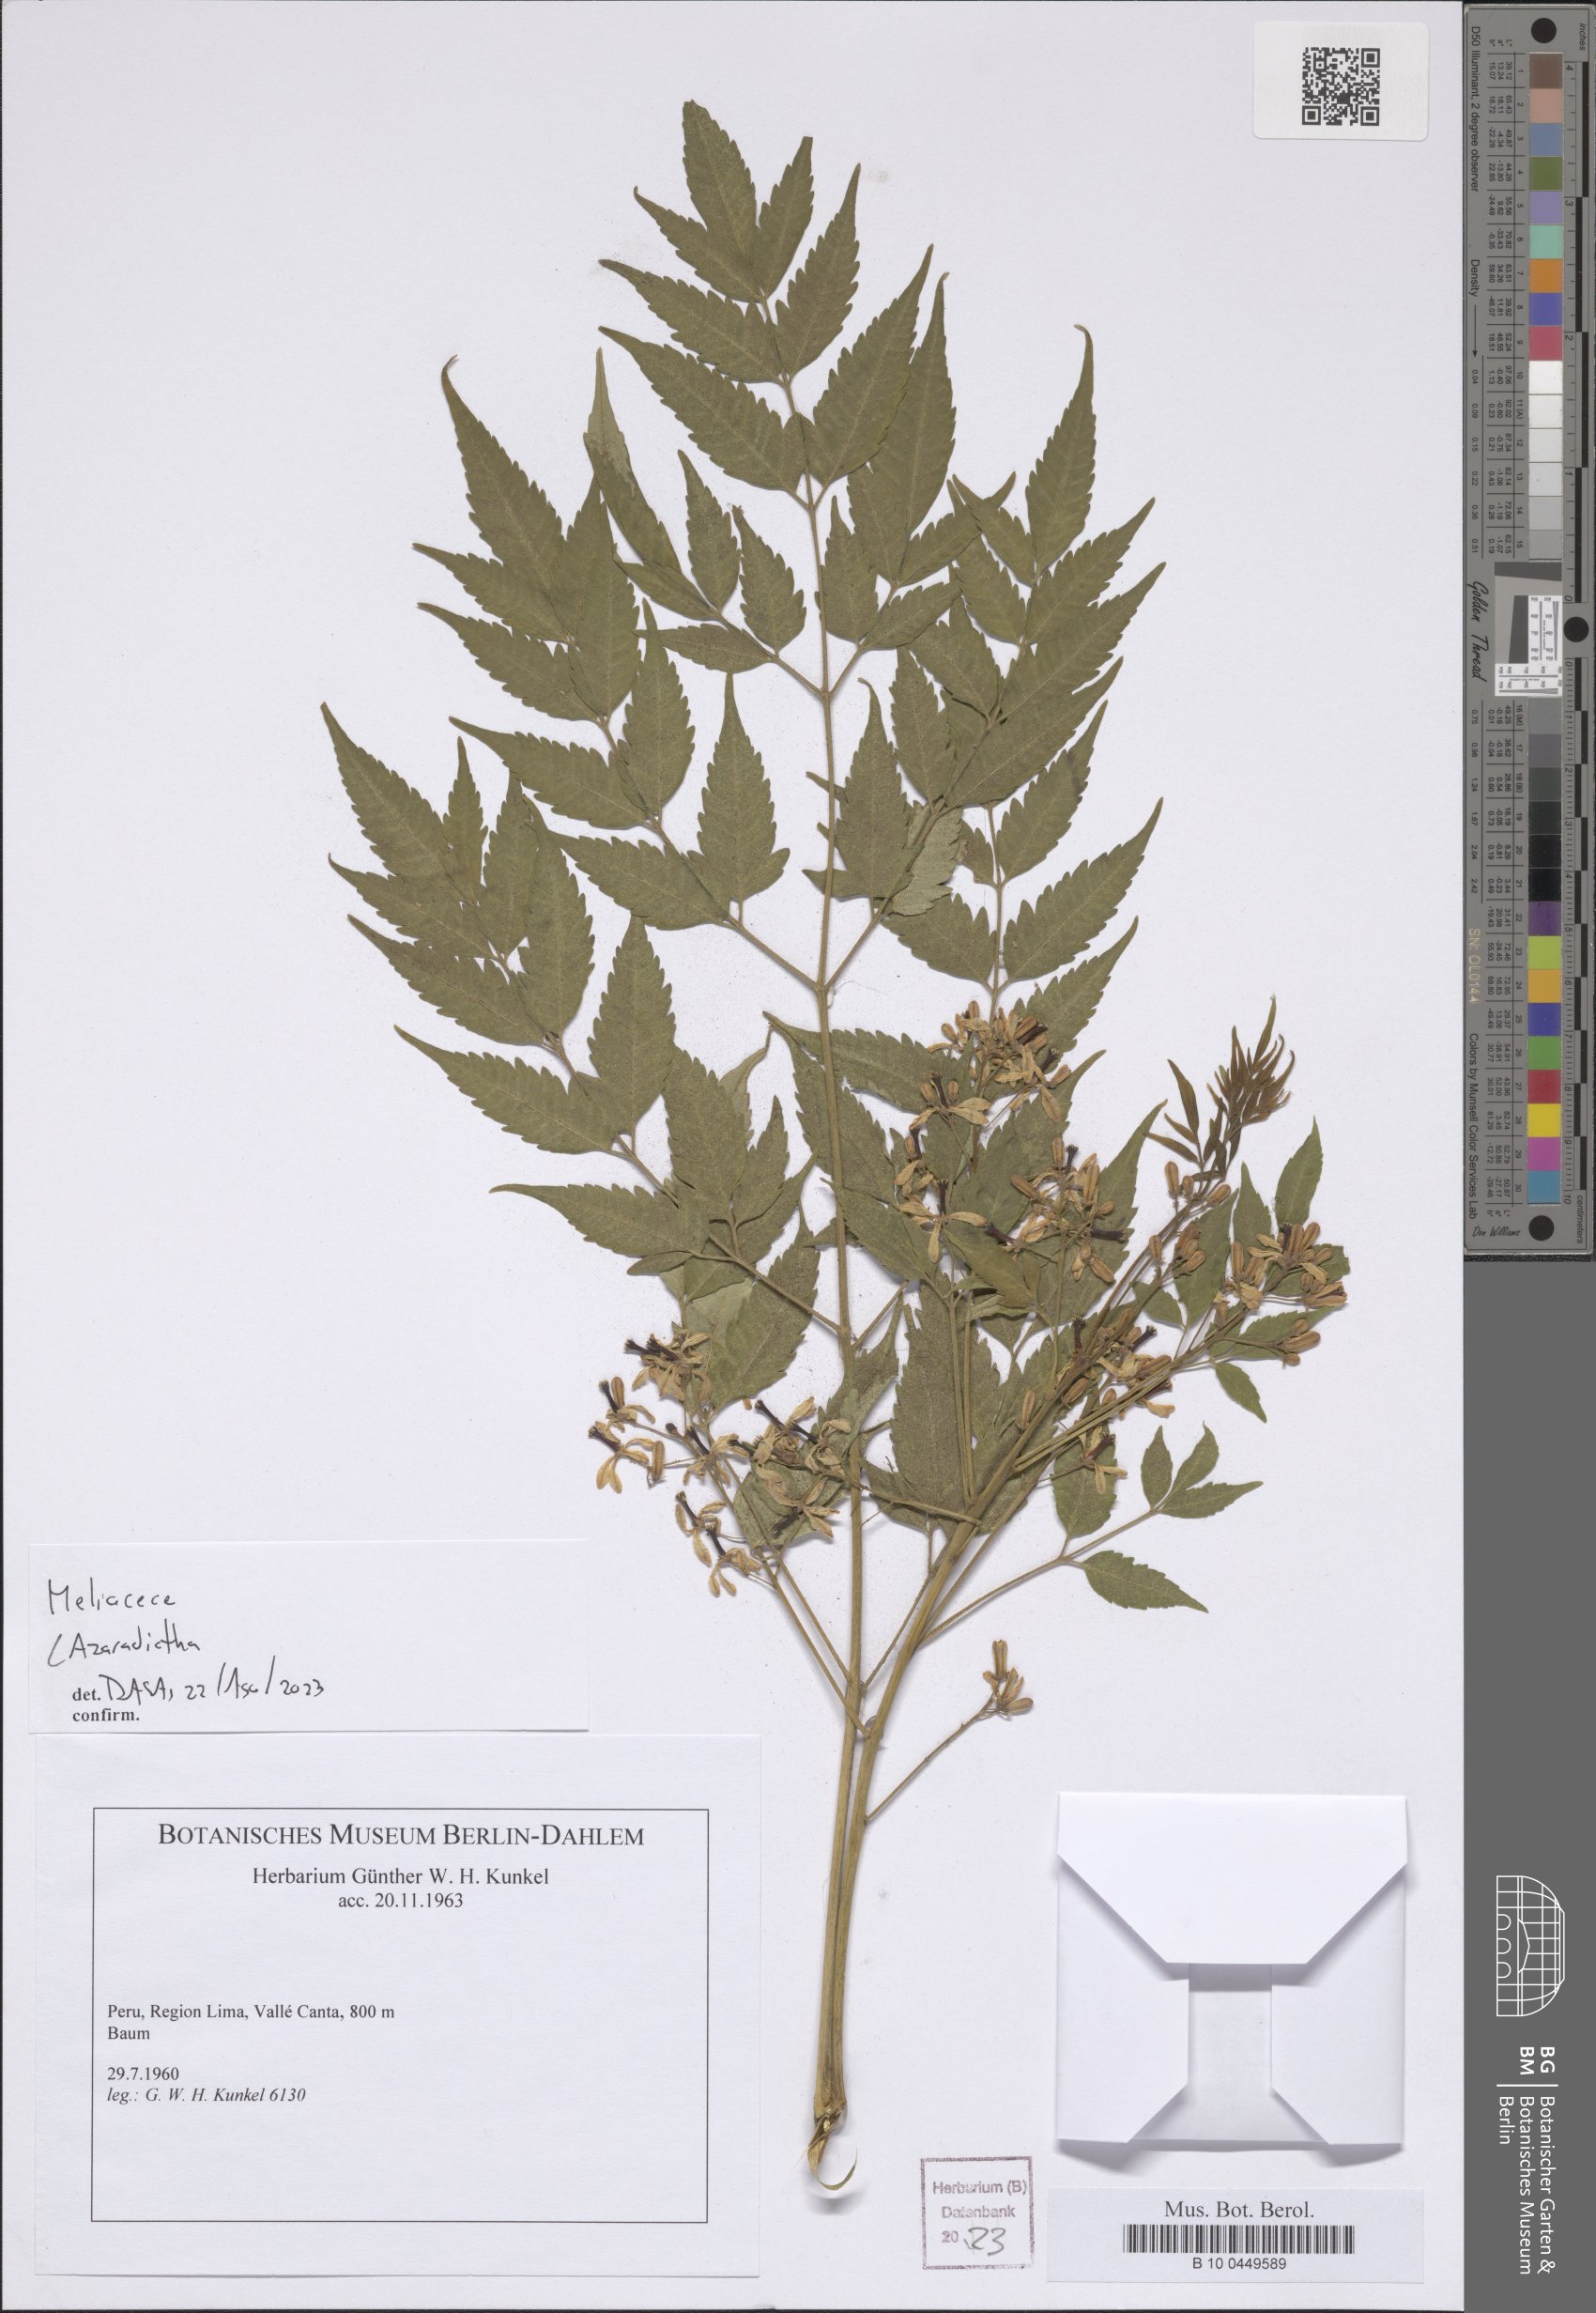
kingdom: Plantae
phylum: Tracheophyta
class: Magnoliopsida
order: Sapindales
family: Meliaceae
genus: Azadirachta
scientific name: Azadirachta
